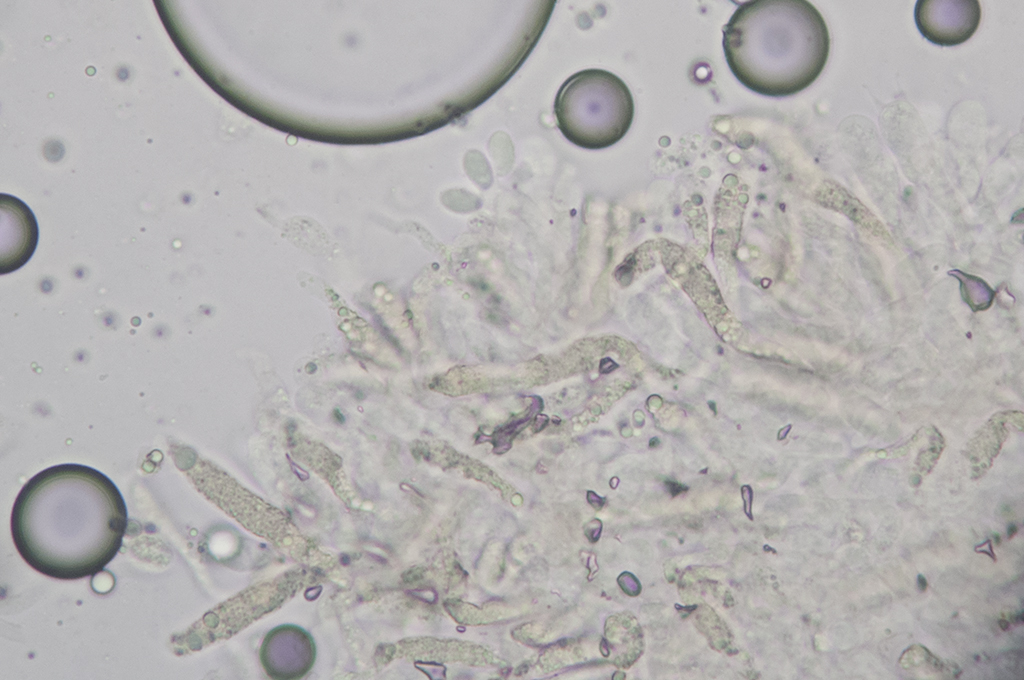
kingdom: Fungi
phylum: Basidiomycota
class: Agaricomycetes
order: Agaricales
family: Entolomataceae
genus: Clitopilus
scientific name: Clitopilus caelatus
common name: gråbrun troldhat
